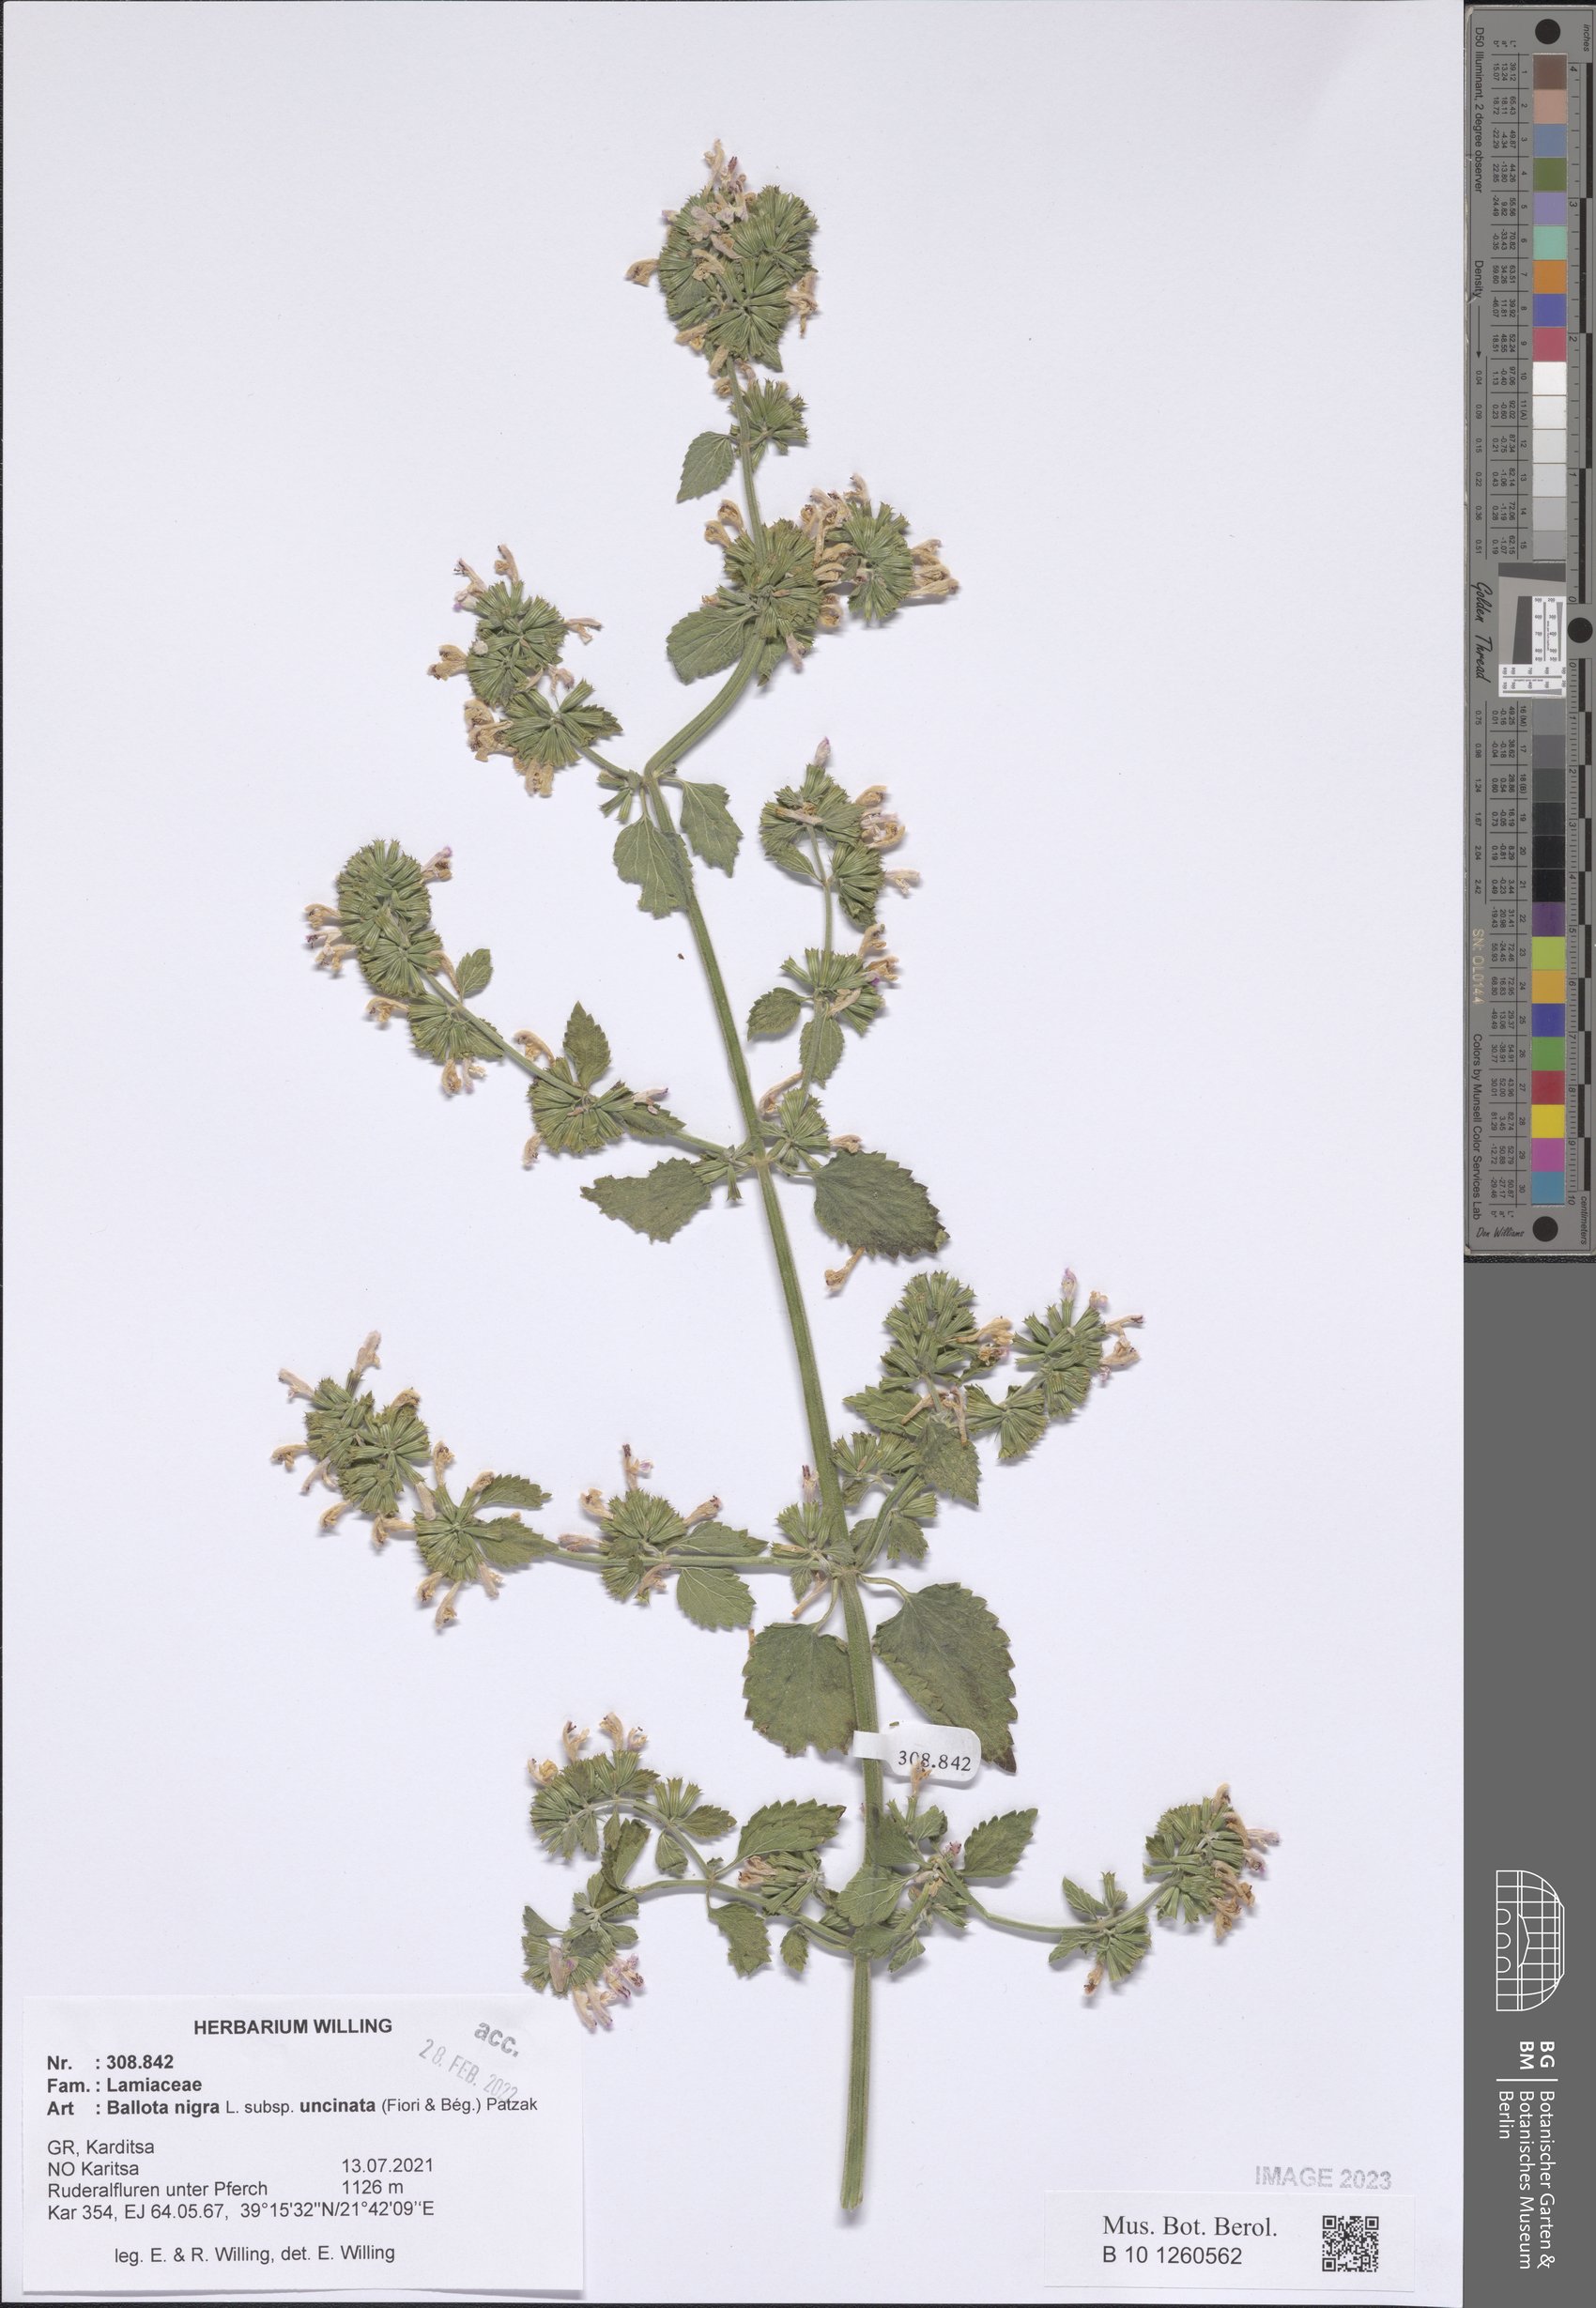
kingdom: Plantae
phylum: Tracheophyta
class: Magnoliopsida
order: Lamiales
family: Lamiaceae
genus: Ballota
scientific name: Ballota nigra
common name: Black horehound
